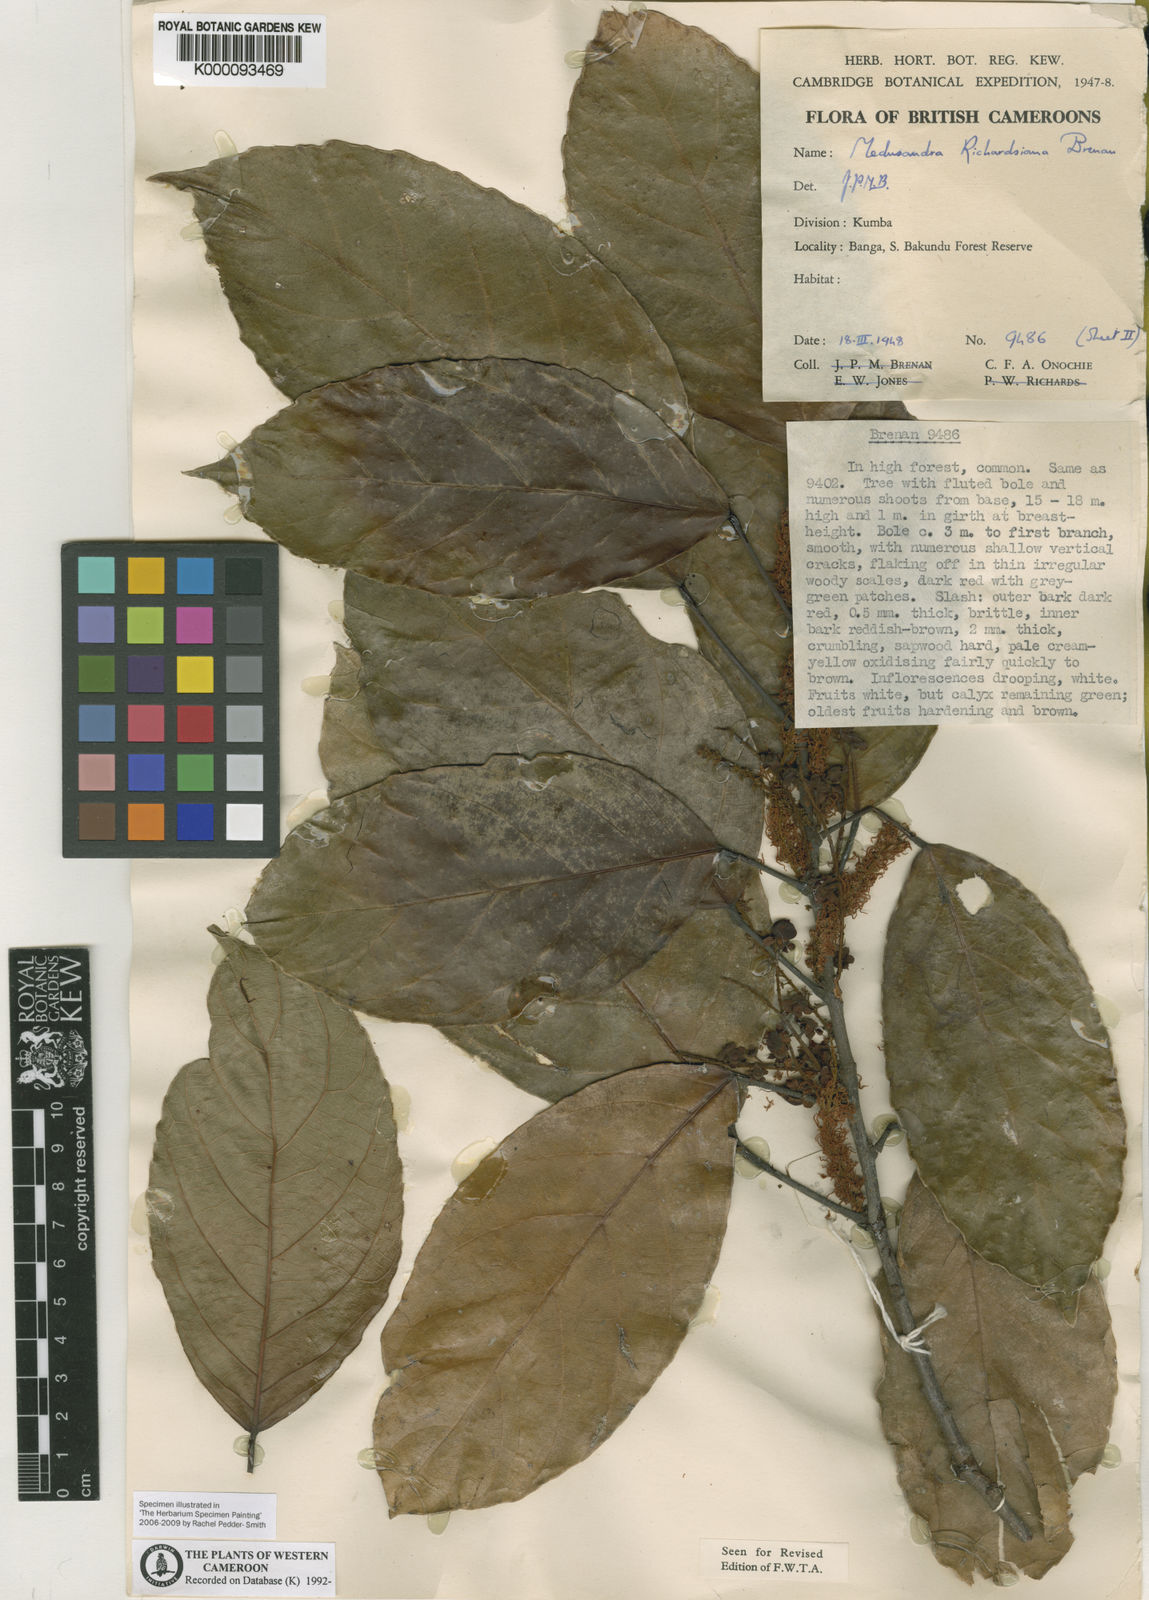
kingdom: Plantae
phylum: Tracheophyta
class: Magnoliopsida
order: Saxifragales
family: Peridiscaceae
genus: Medusandra
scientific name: Medusandra richardsiana
